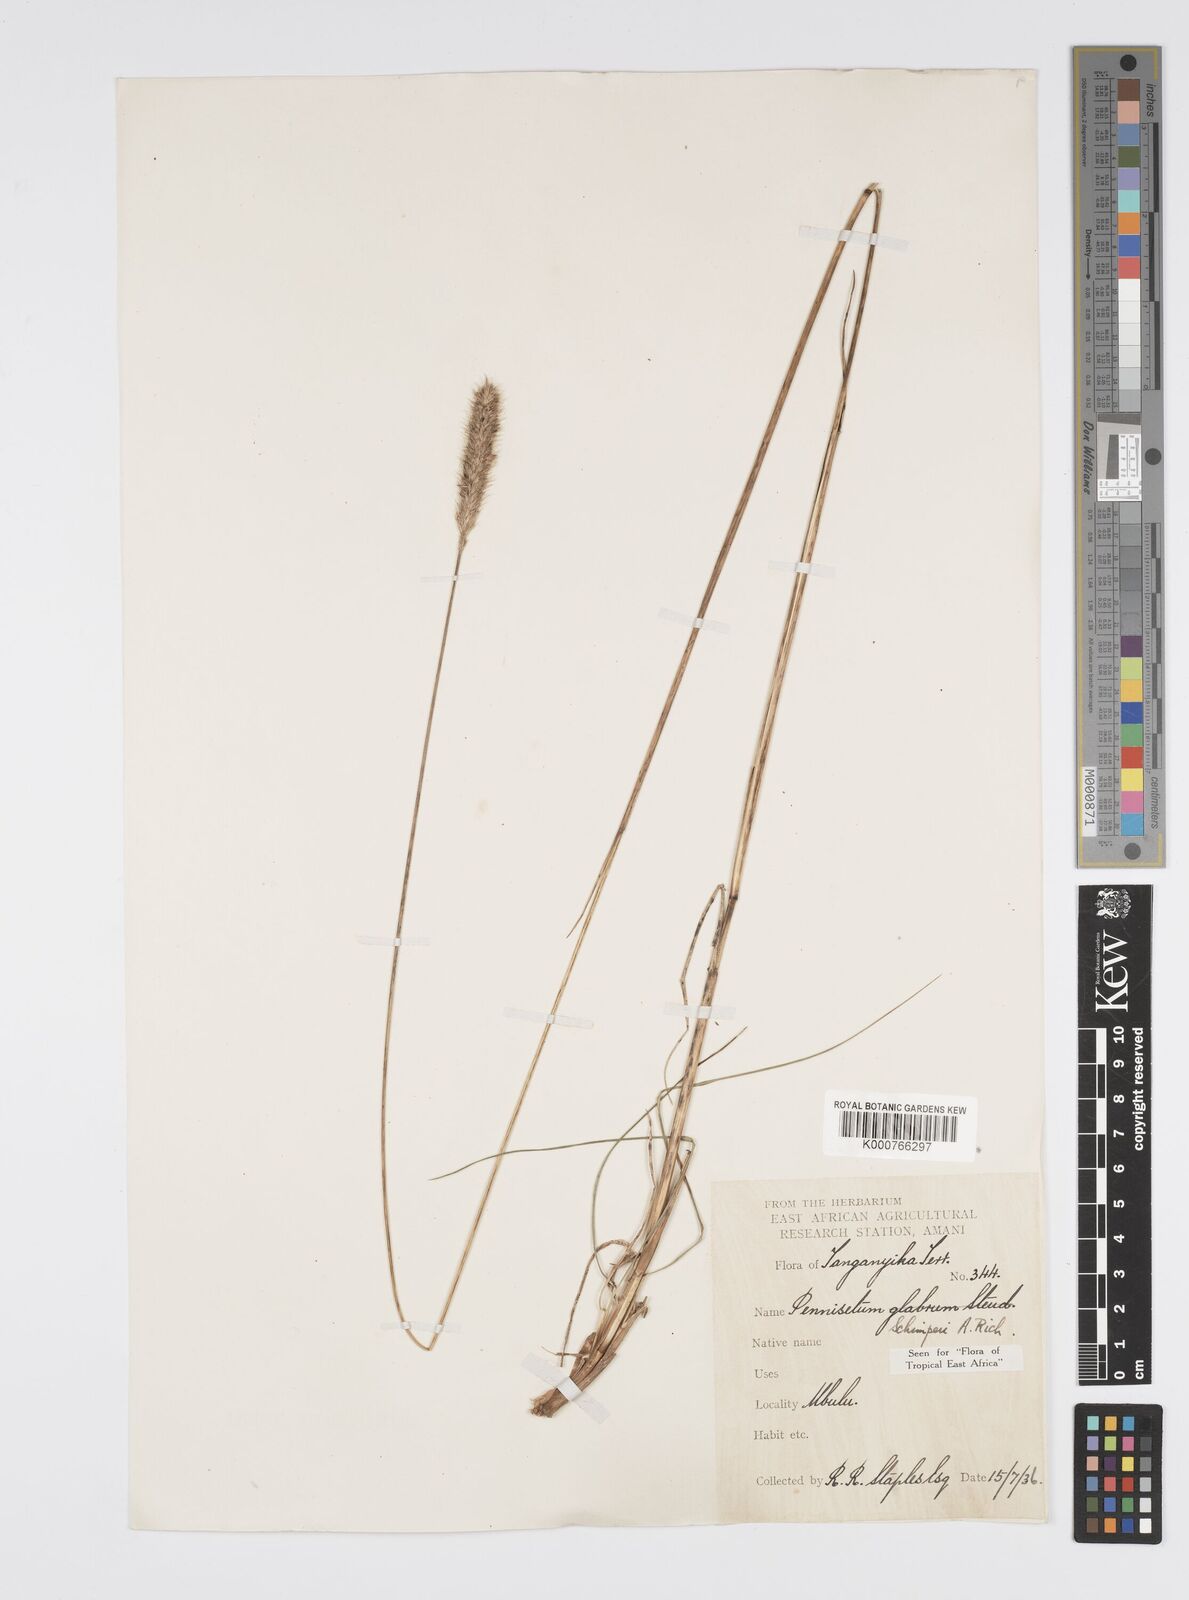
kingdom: Plantae
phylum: Tracheophyta
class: Liliopsida
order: Poales
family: Poaceae
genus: Cenchrus
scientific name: Cenchrus sphacelatus
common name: Bulgras
